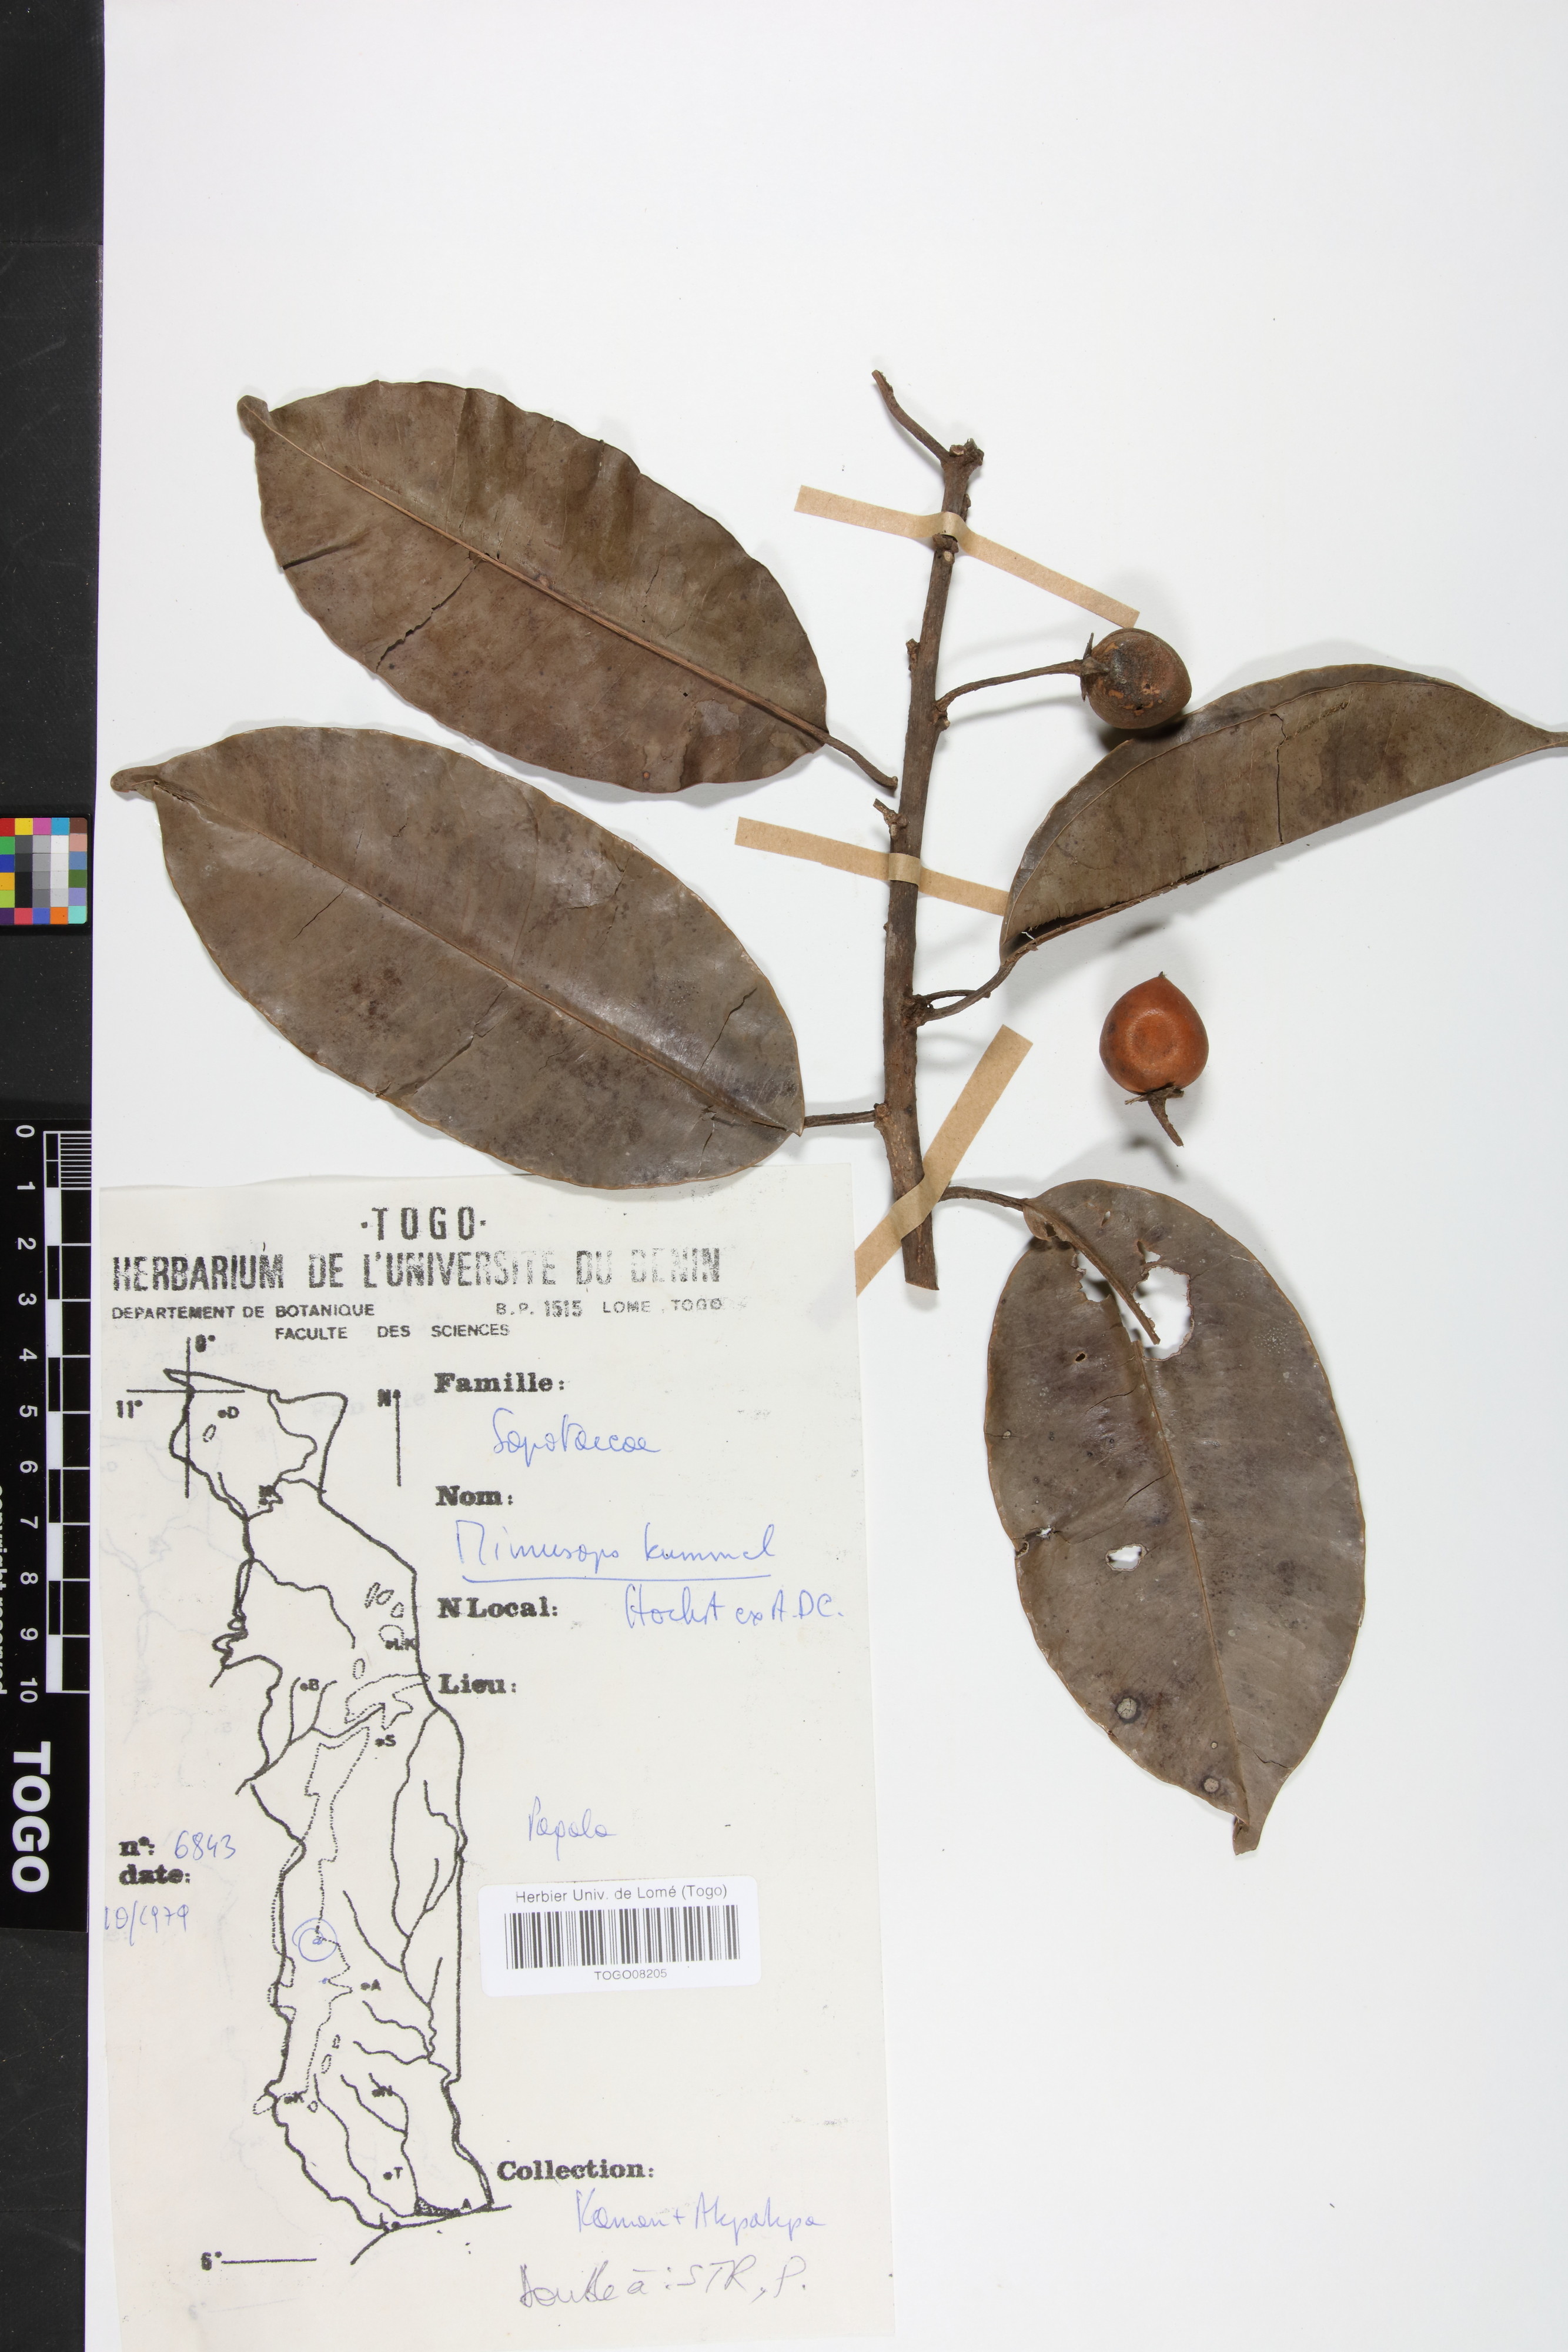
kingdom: Plantae
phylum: Tracheophyta
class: Magnoliopsida
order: Ericales
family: Sapotaceae
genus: Mimusops
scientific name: Mimusops kummel
